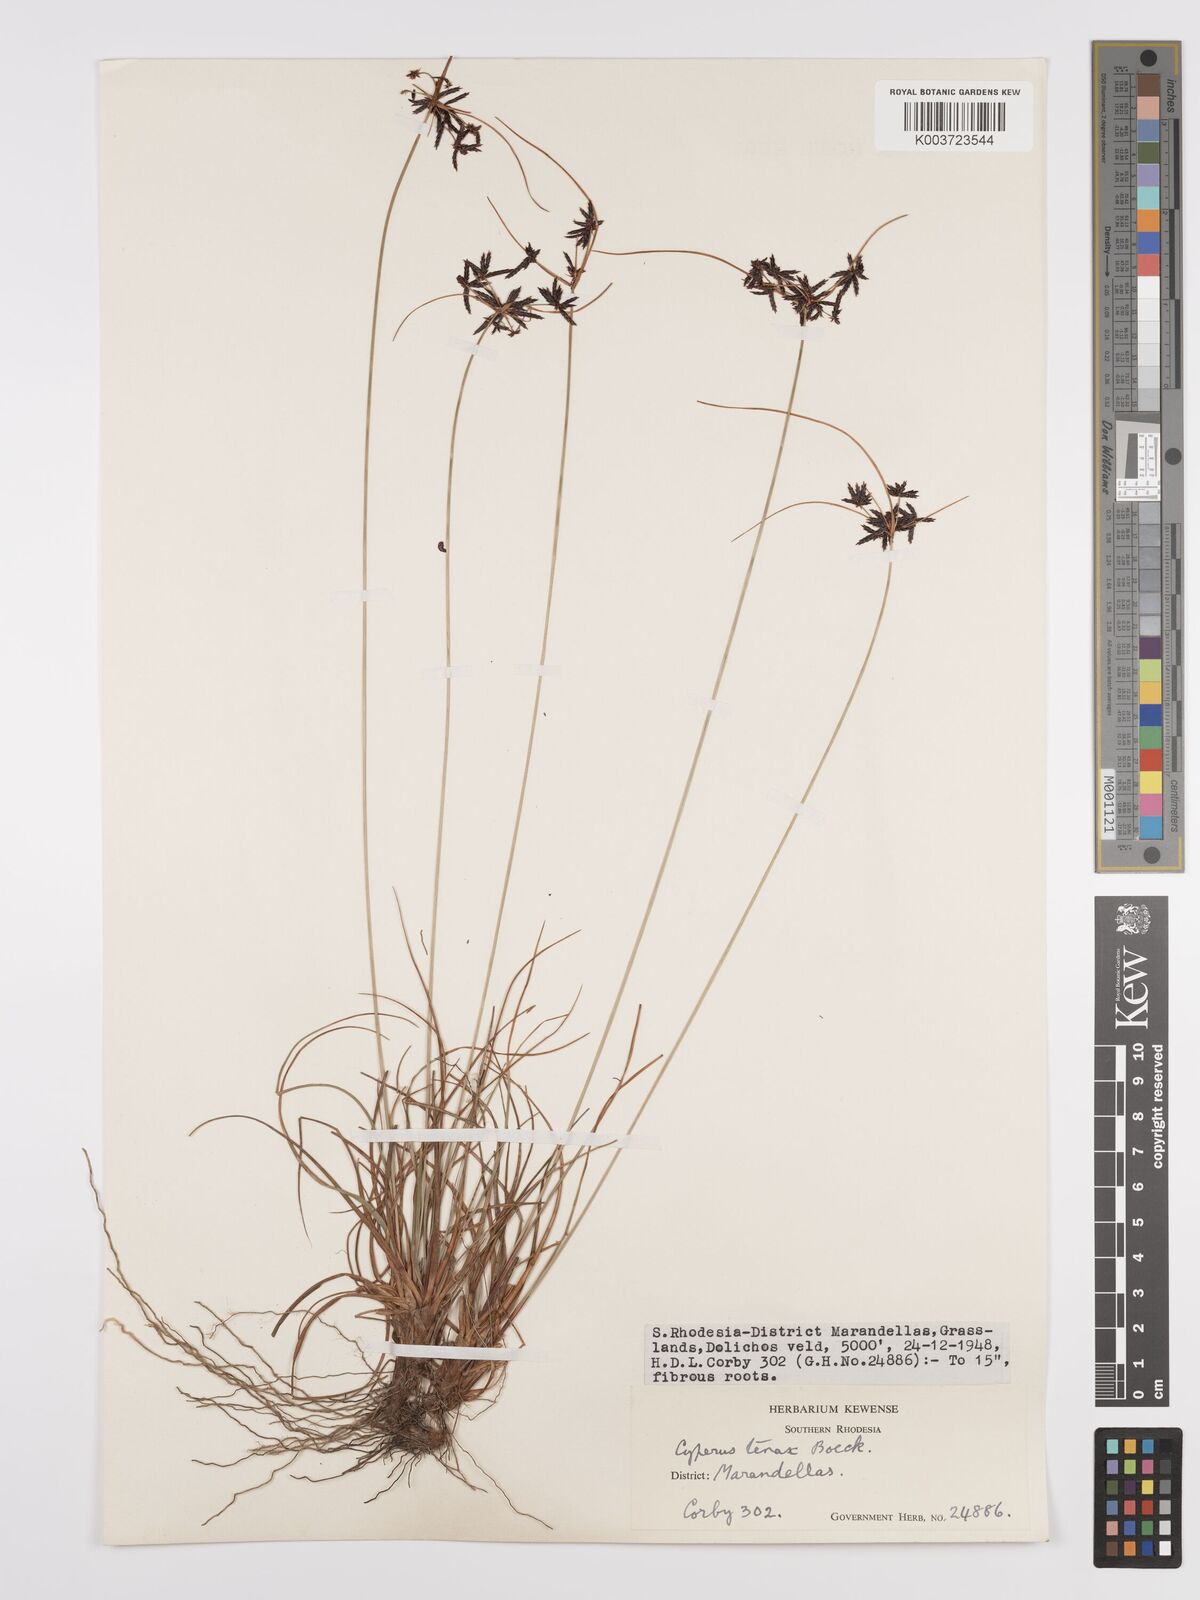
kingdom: Plantae
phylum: Tracheophyta
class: Liliopsida
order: Poales
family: Cyperaceae
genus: Cyperus
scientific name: Cyperus tenax
